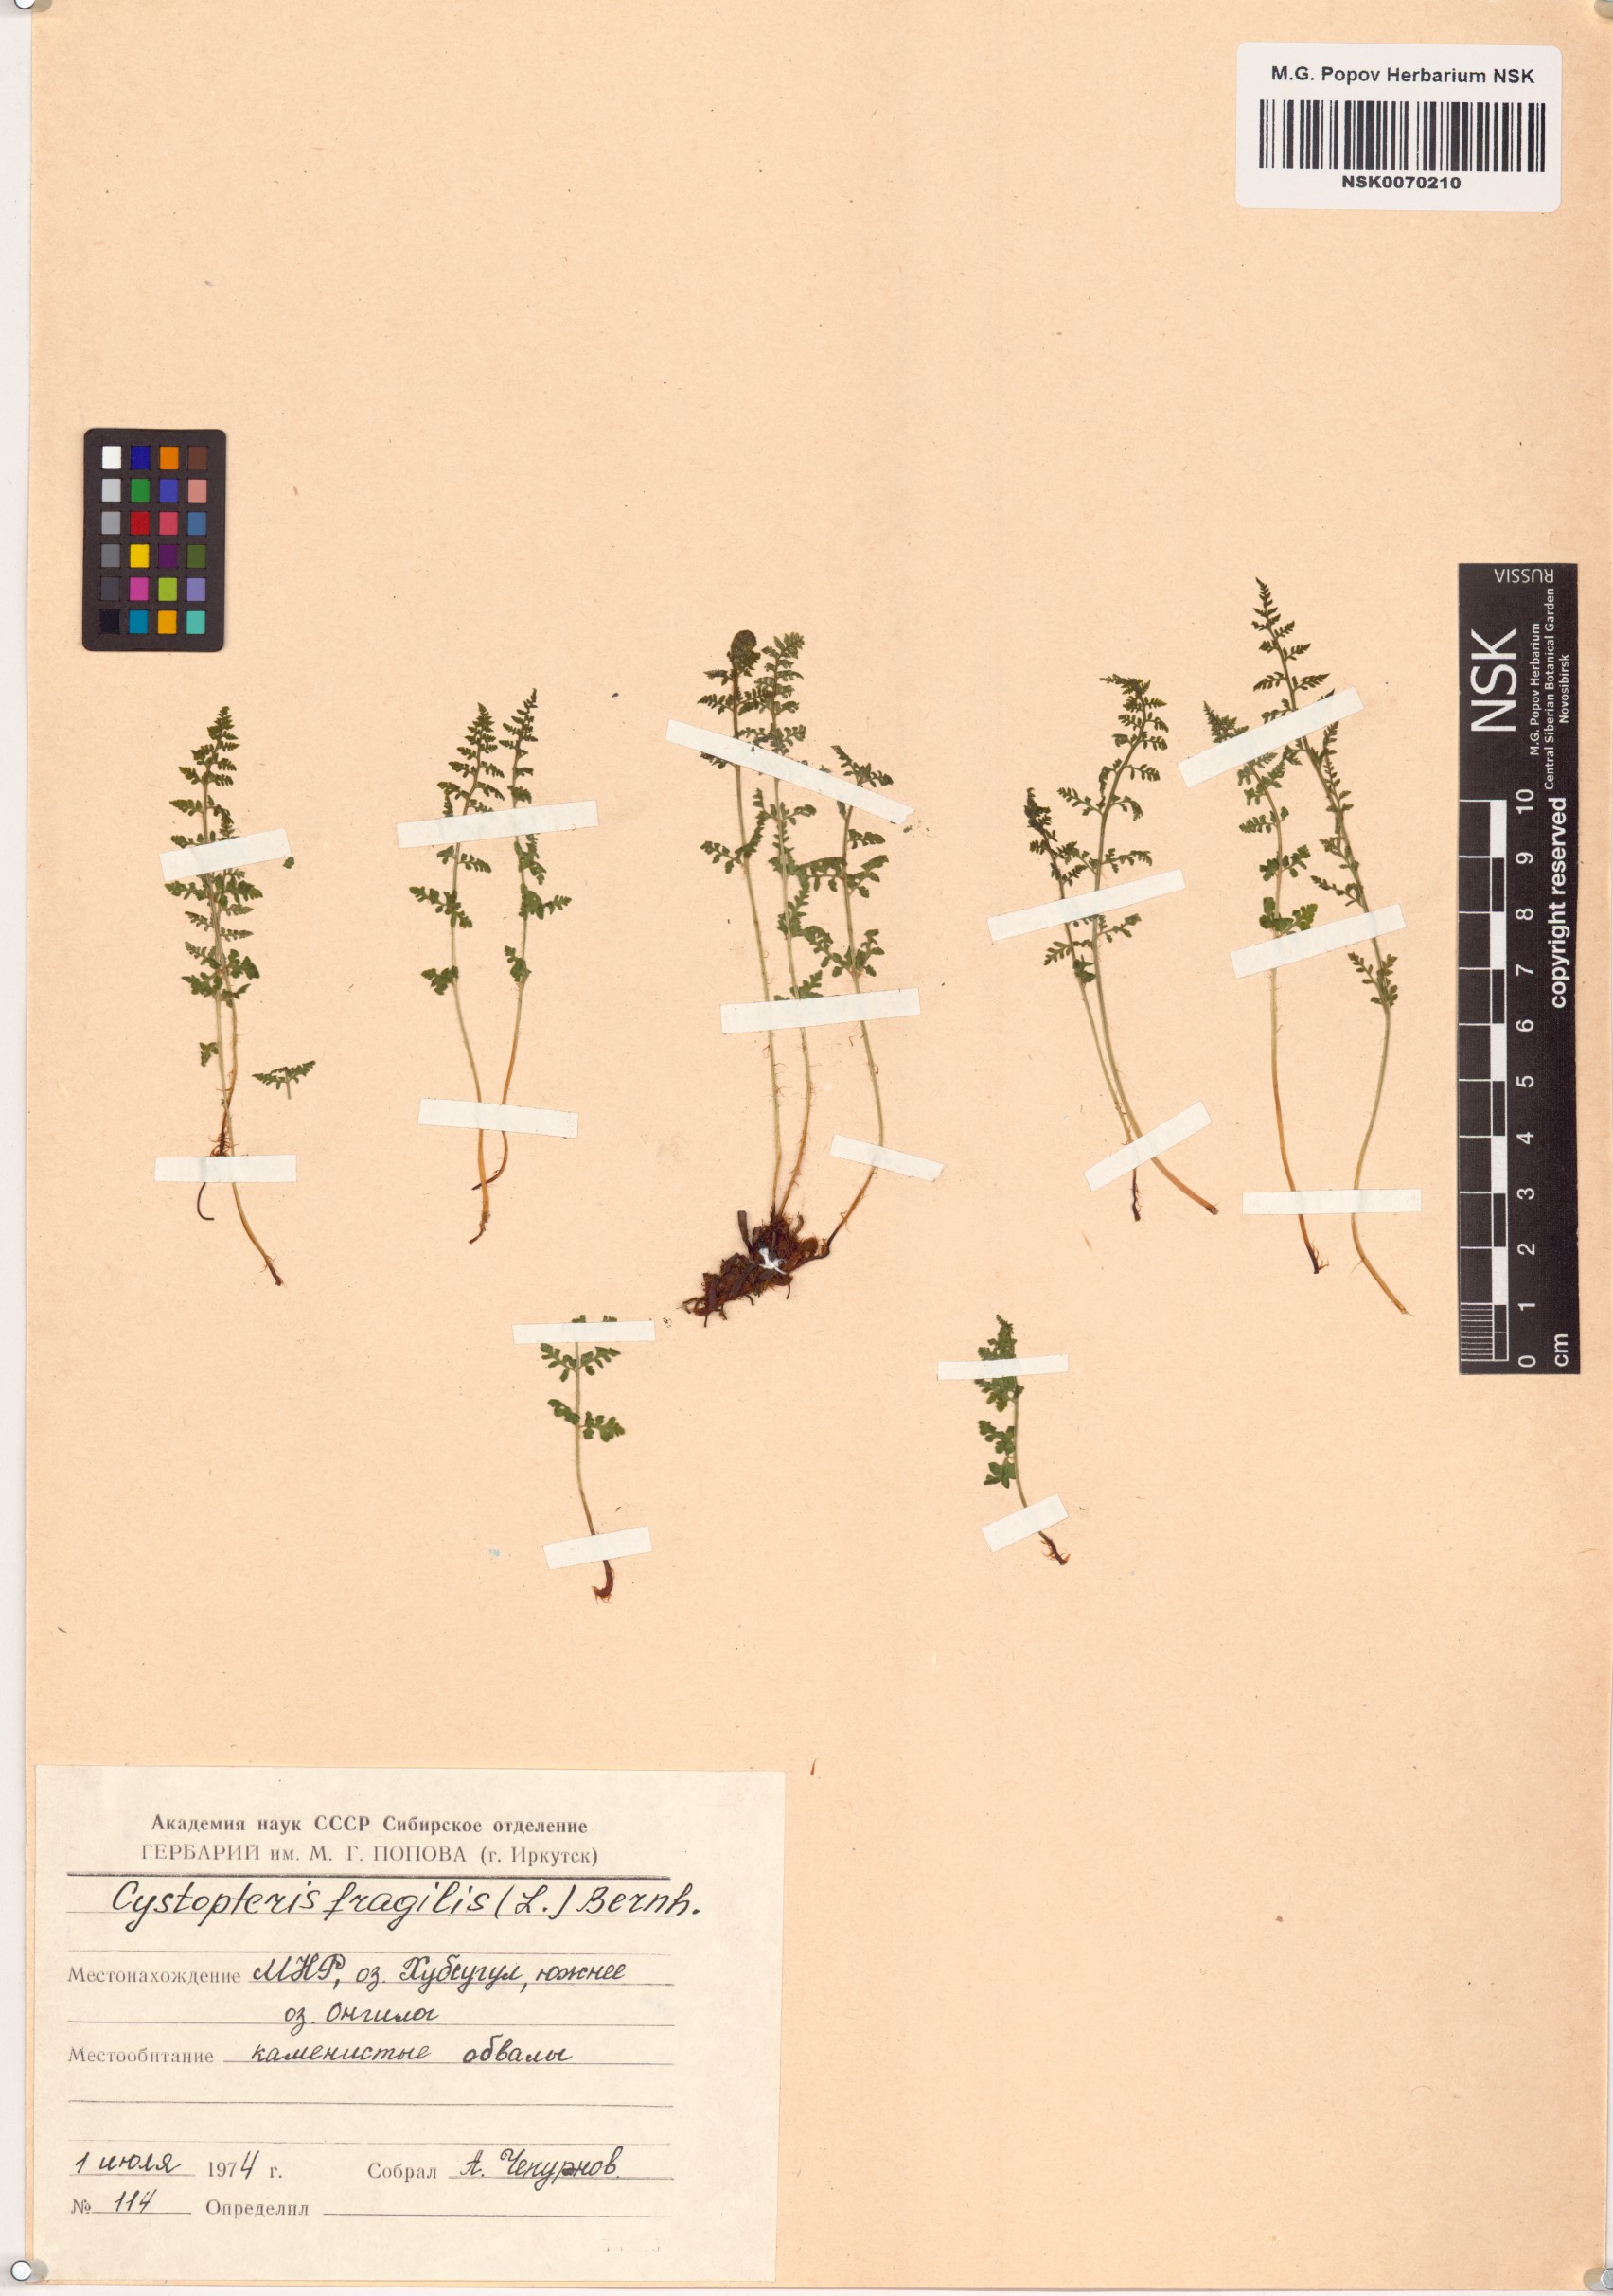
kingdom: Plantae
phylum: Tracheophyta
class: Polypodiopsida
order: Polypodiales
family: Cystopteridaceae
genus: Cystopteris
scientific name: Cystopteris fragilis
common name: Brittle bladder fern
